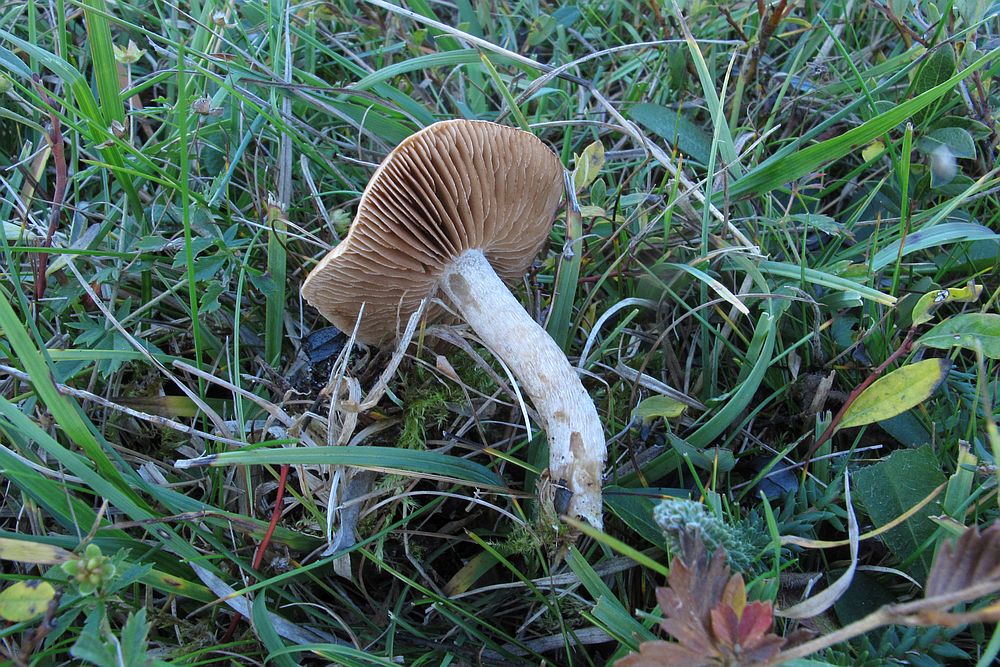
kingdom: Fungi
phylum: Basidiomycota
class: Agaricomycetes
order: Agaricales
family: Hymenogastraceae
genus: Hebeloma
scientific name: Hebeloma leucosarx
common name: højstokket tåreblad
